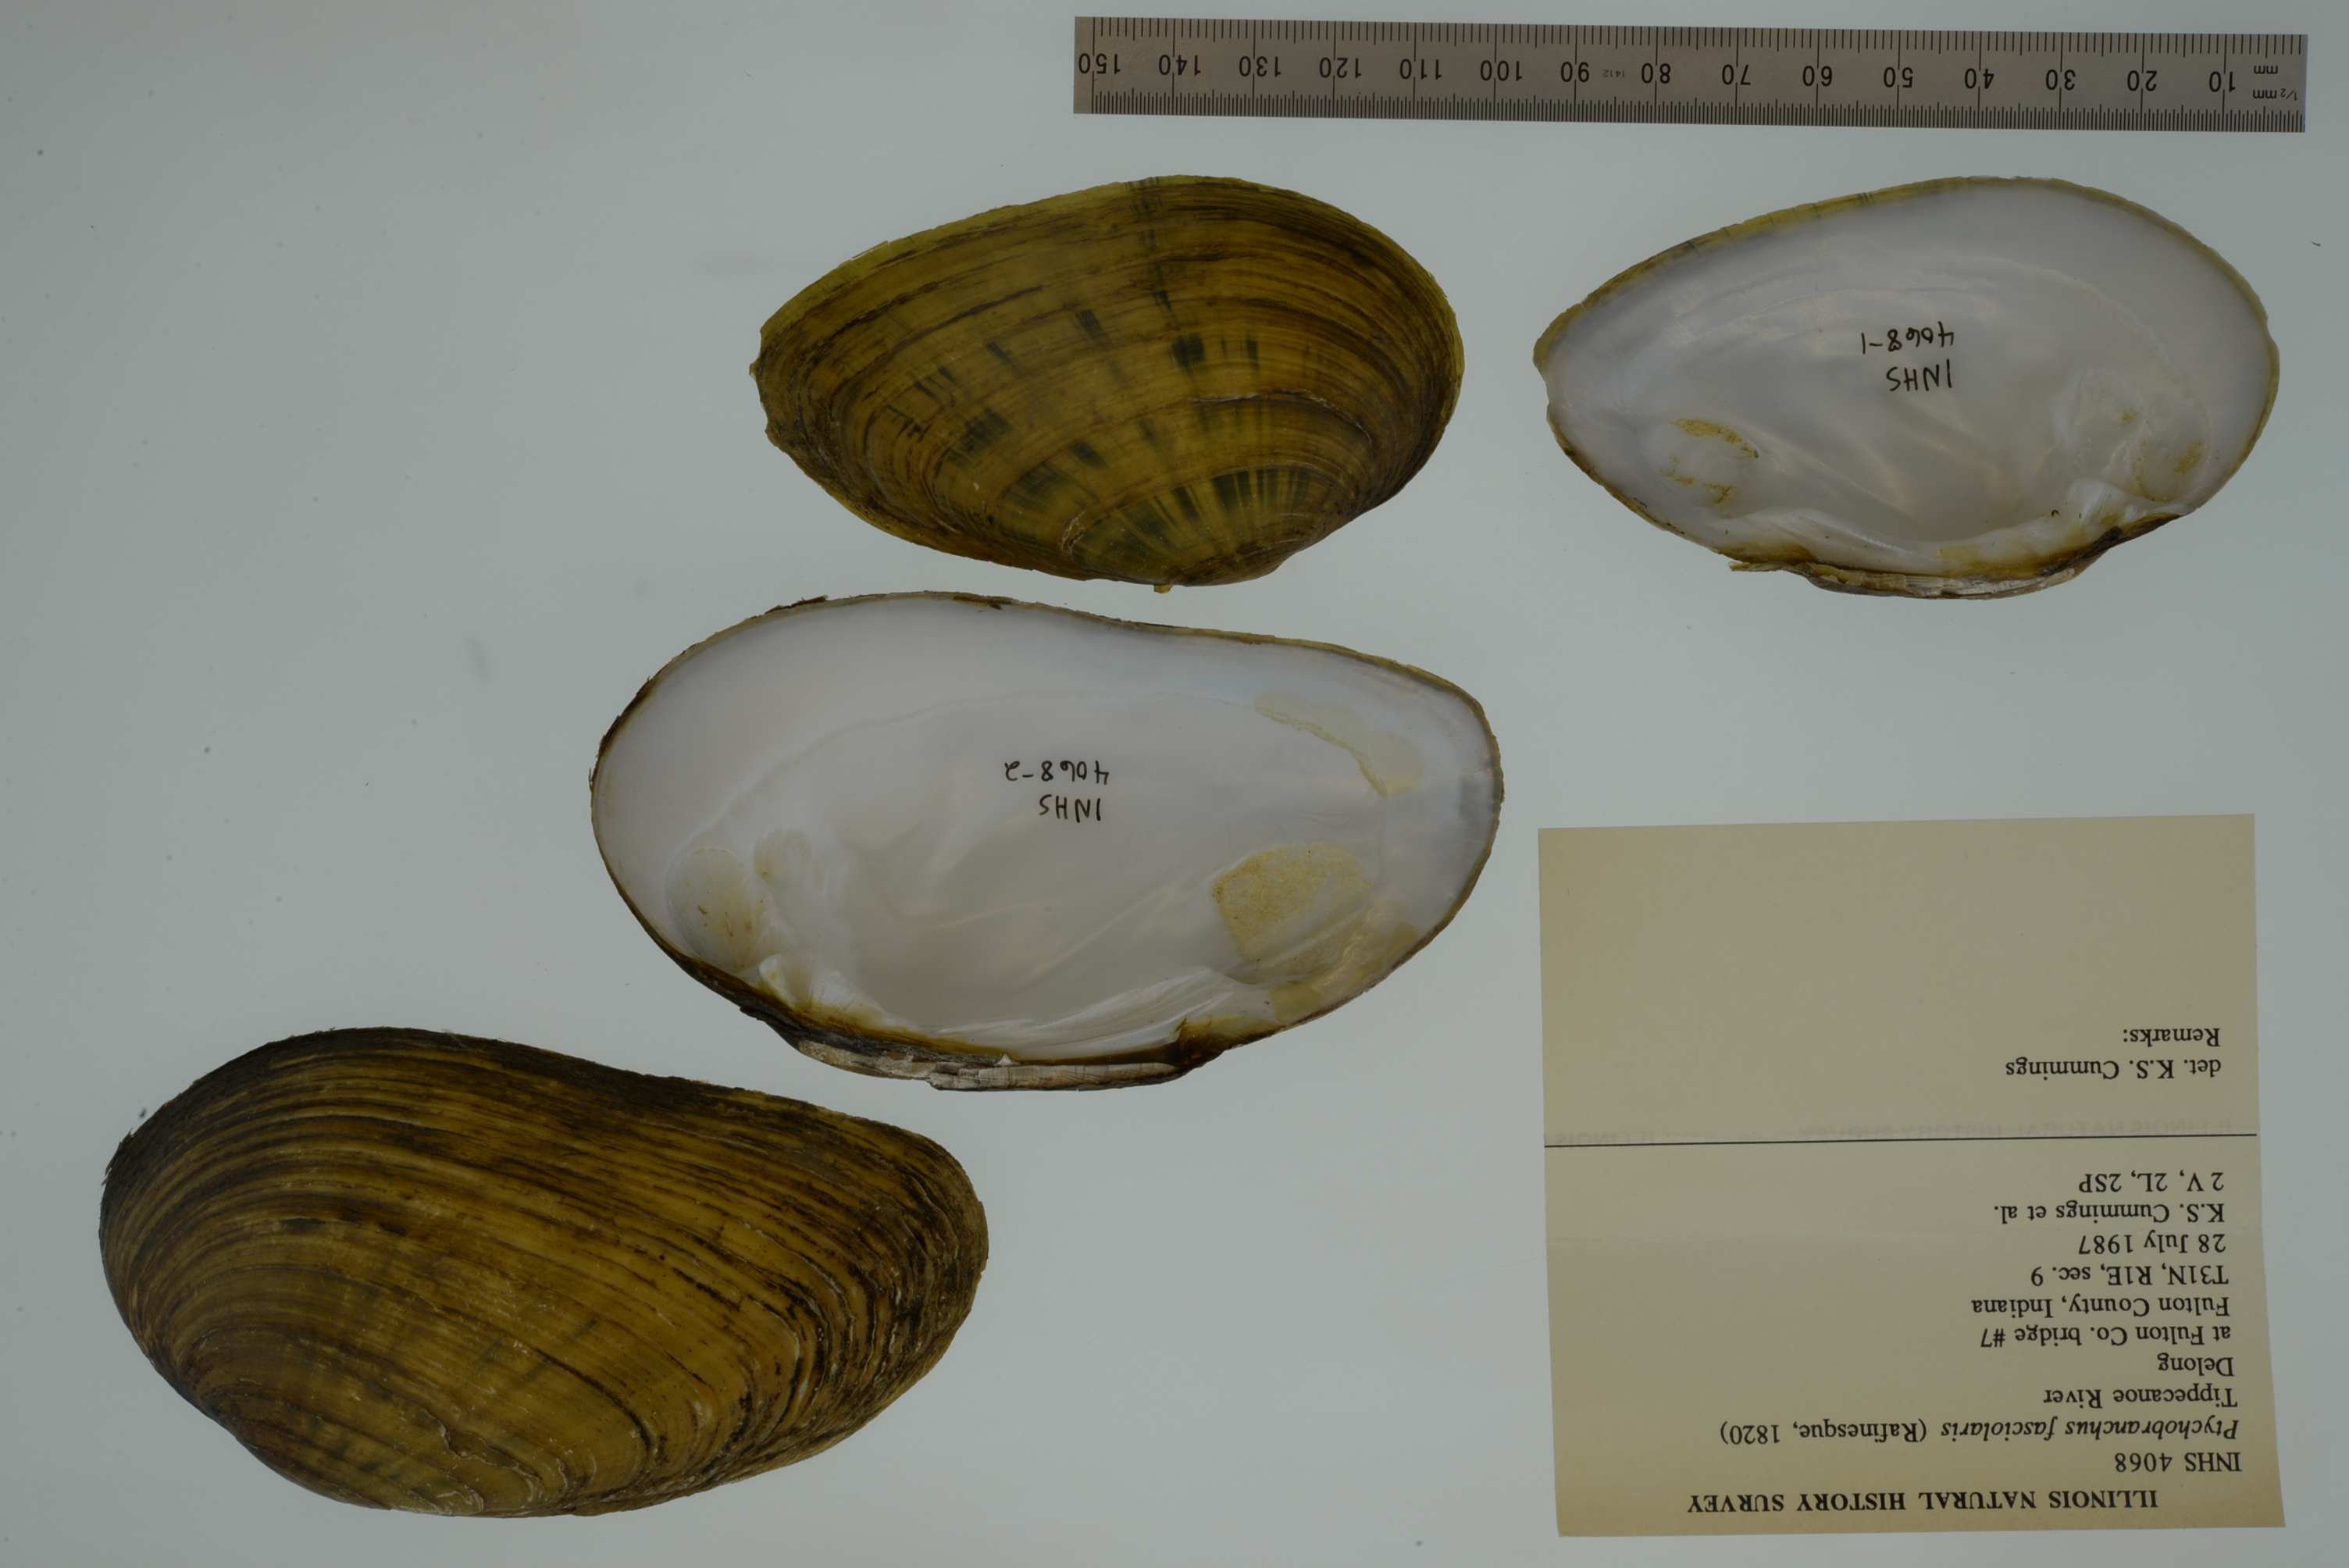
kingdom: Animalia
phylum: Mollusca
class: Bivalvia
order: Unionida
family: Unionidae
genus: Ptychobranchus
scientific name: Ptychobranchus fasciolaris
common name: Kidneyshell
